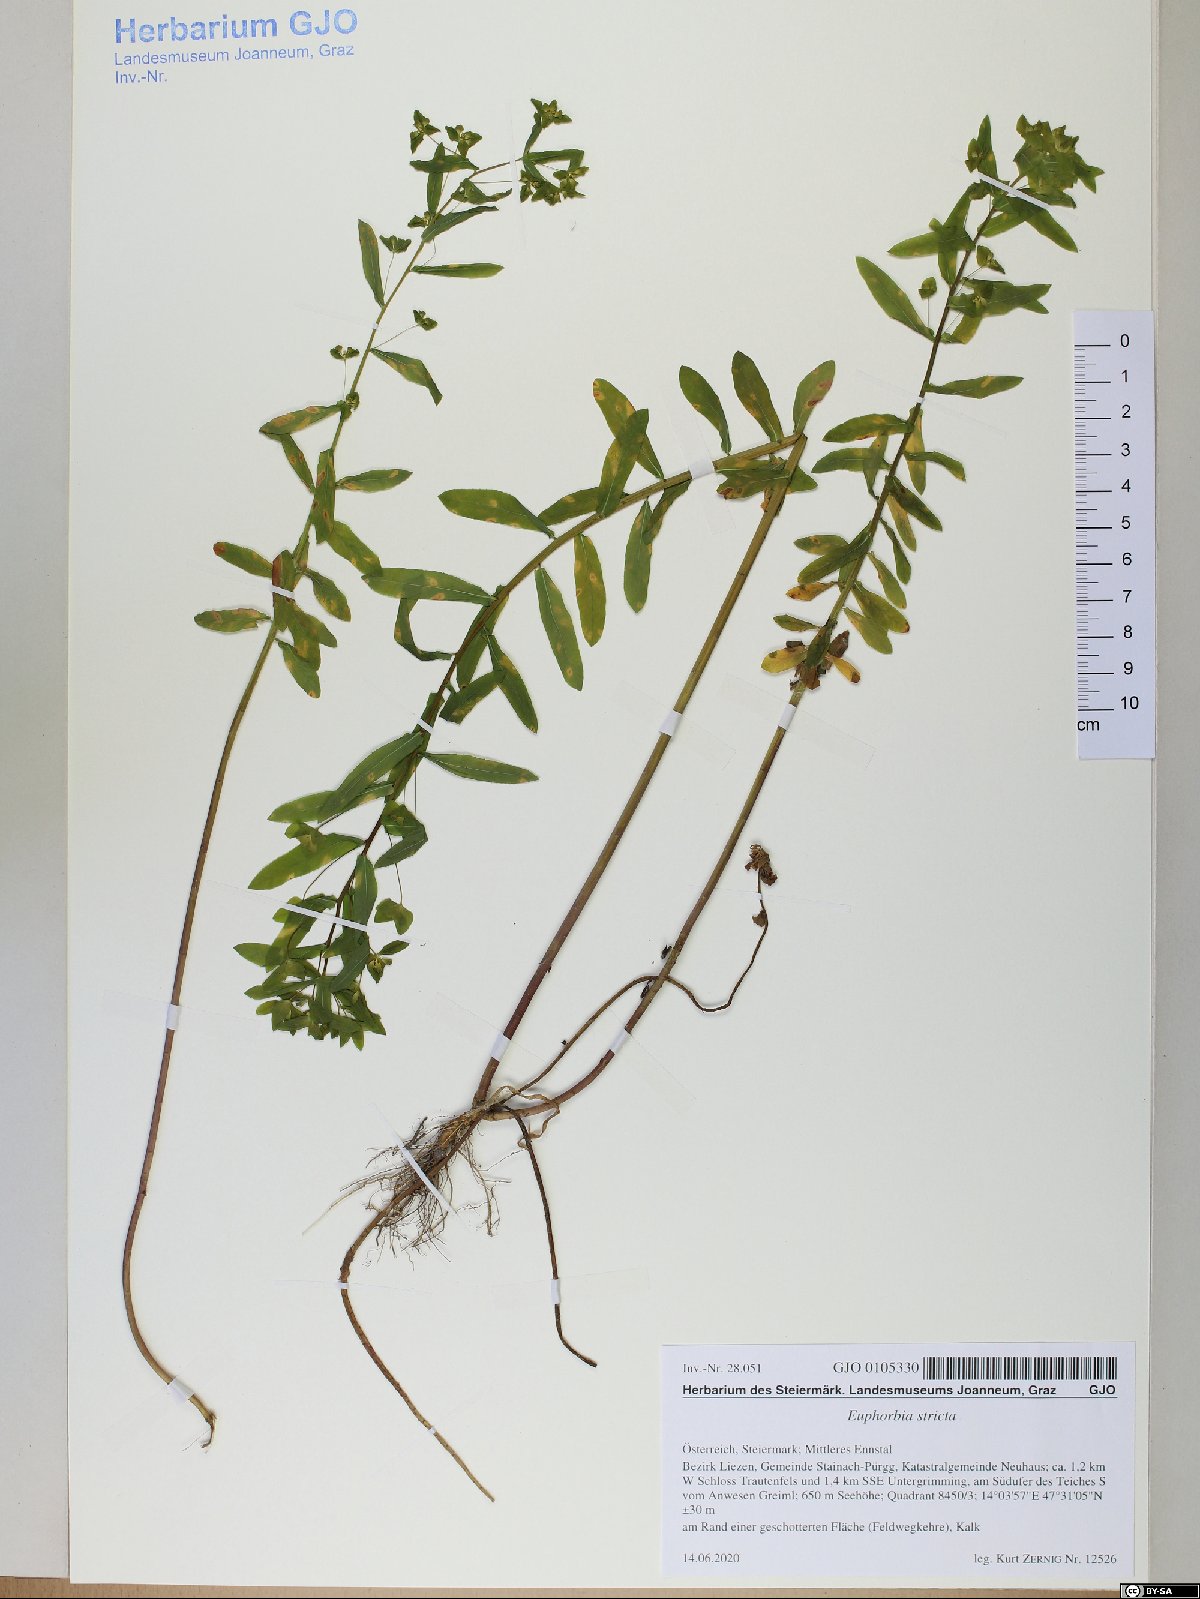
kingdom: Plantae
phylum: Tracheophyta
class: Magnoliopsida
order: Malpighiales
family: Euphorbiaceae
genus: Euphorbia
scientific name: Euphorbia stricta
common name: Upright spurge
